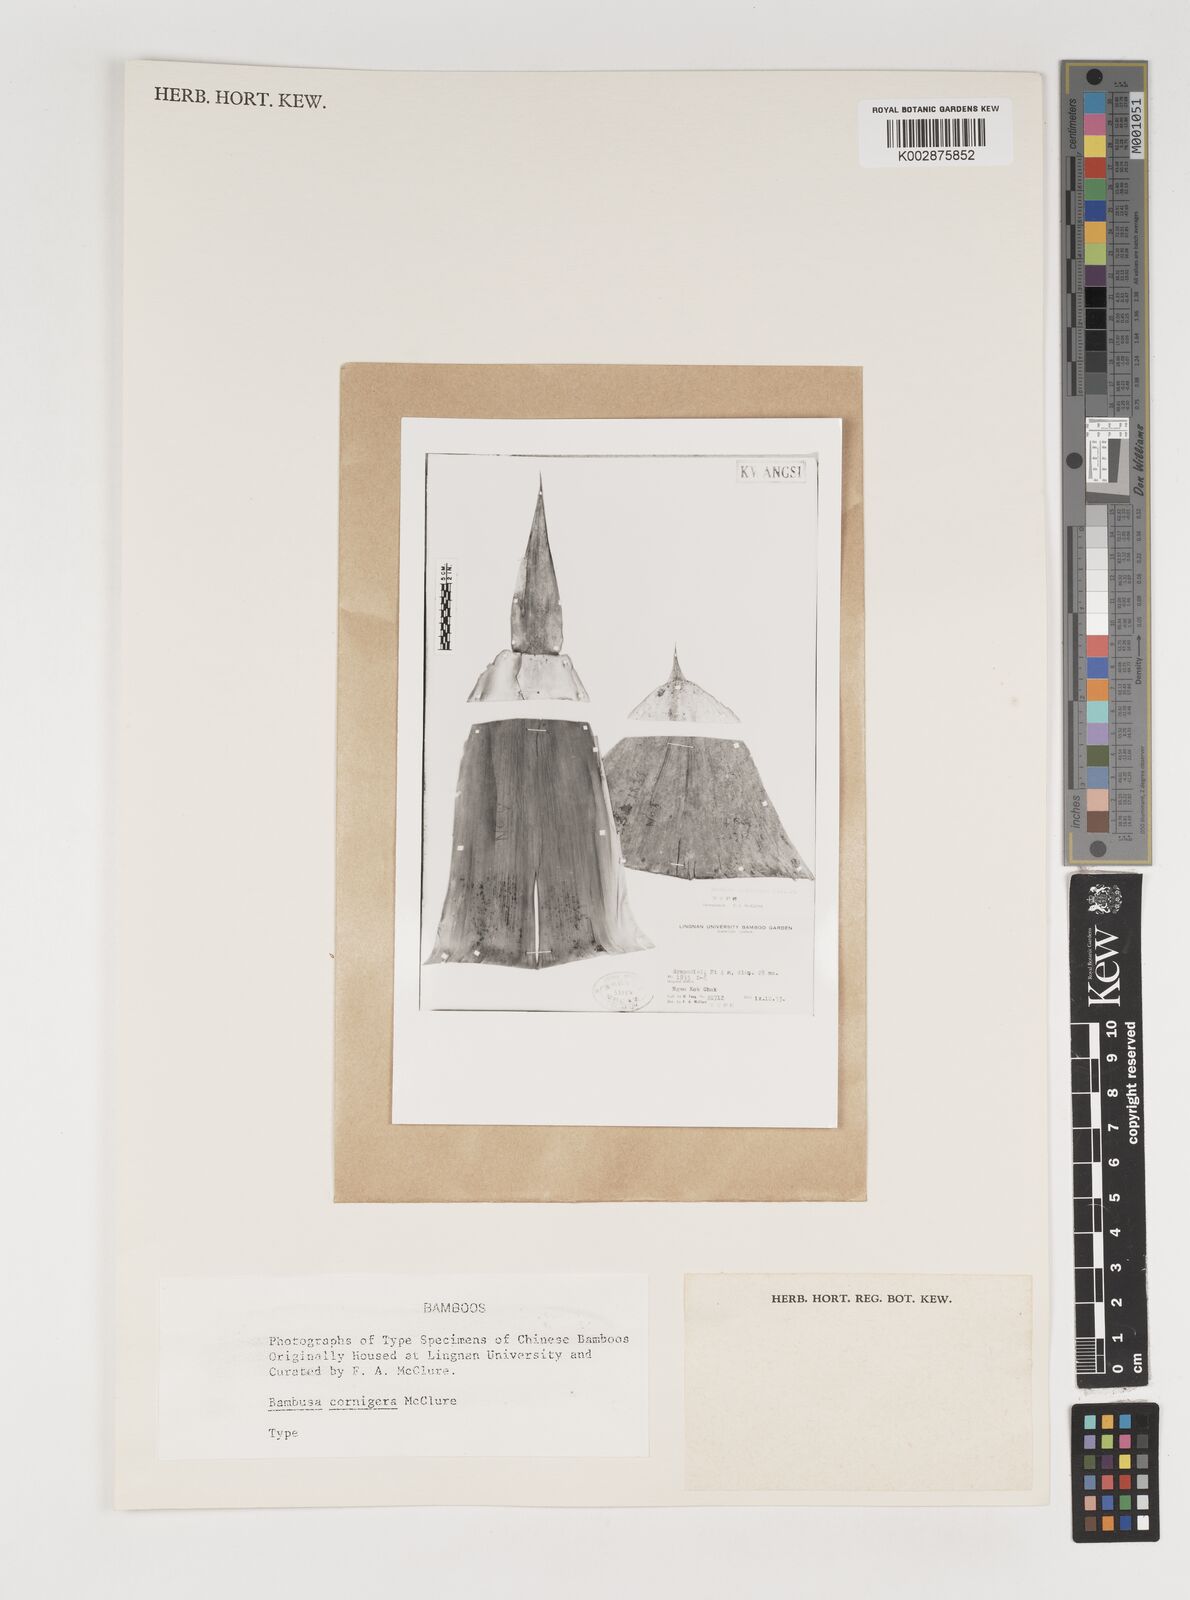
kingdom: Plantae
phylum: Tracheophyta
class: Liliopsida
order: Poales
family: Poaceae
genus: Bambusa
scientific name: Bambusa cornigera
